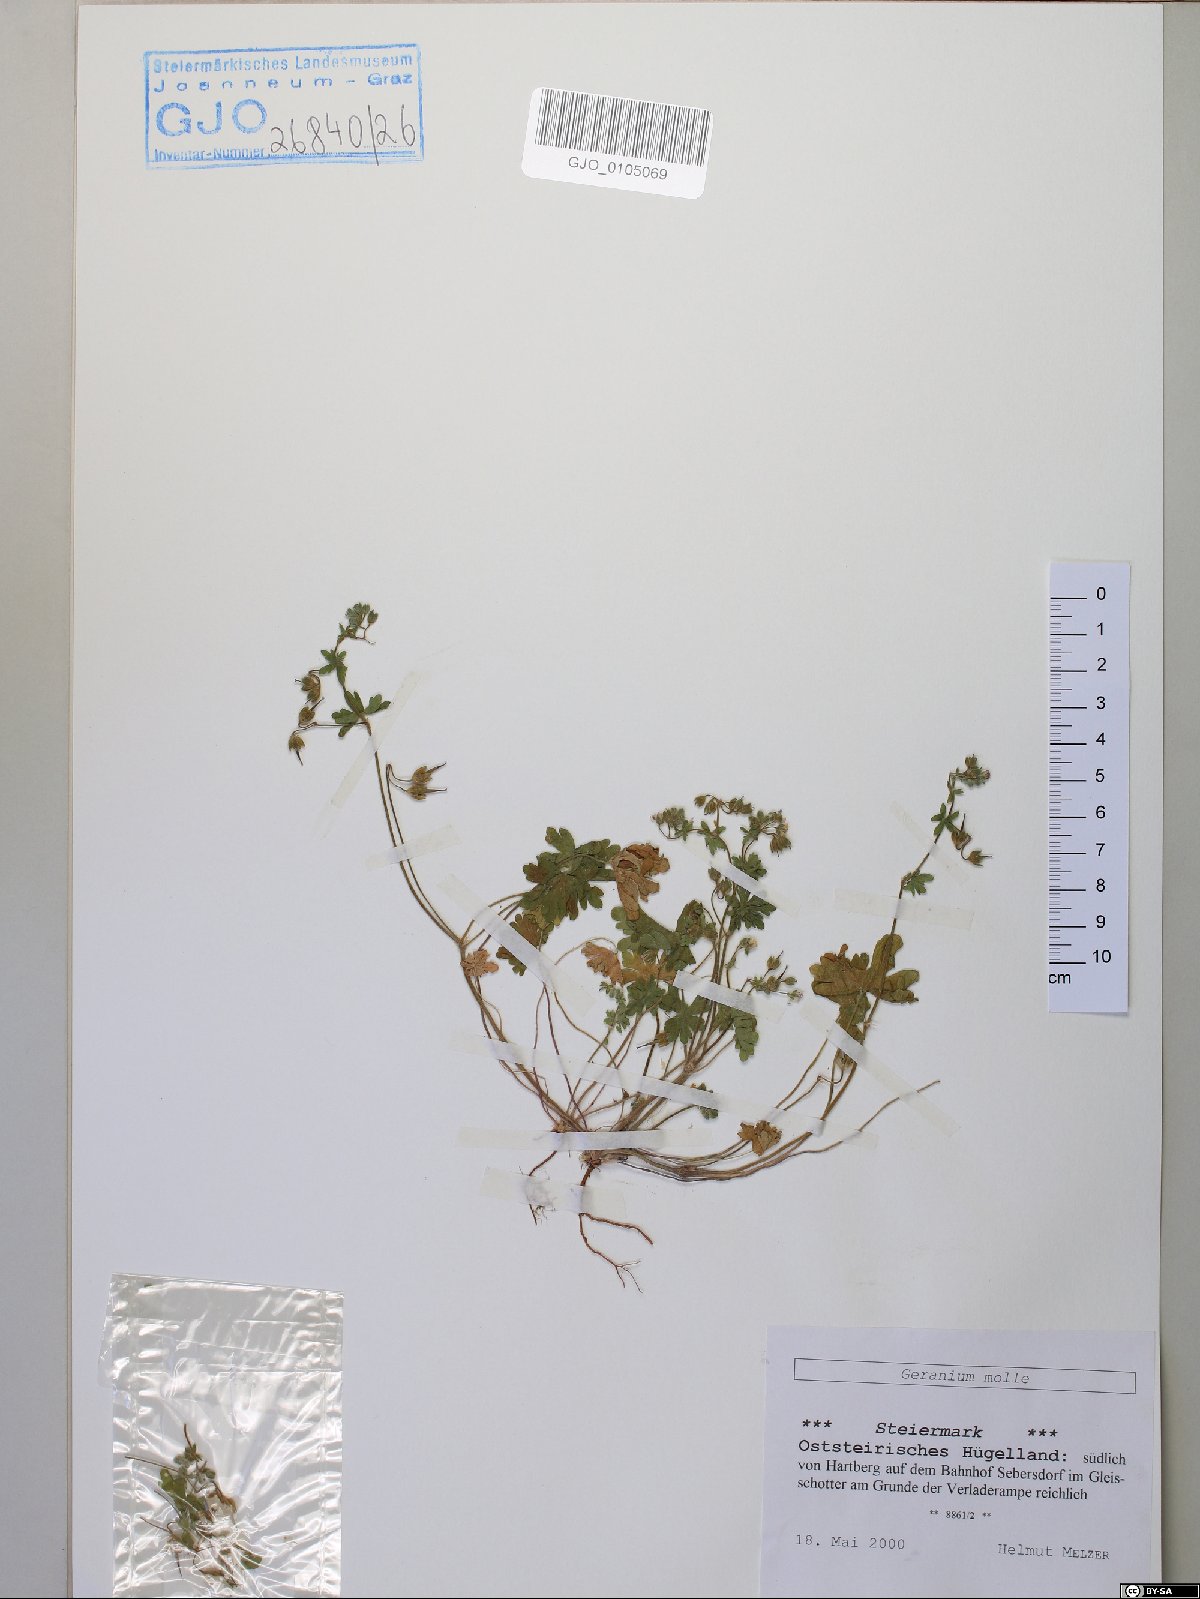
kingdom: Plantae
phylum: Tracheophyta
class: Magnoliopsida
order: Geraniales
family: Geraniaceae
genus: Geranium
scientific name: Geranium molle
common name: Dove's-foot crane's-bill
